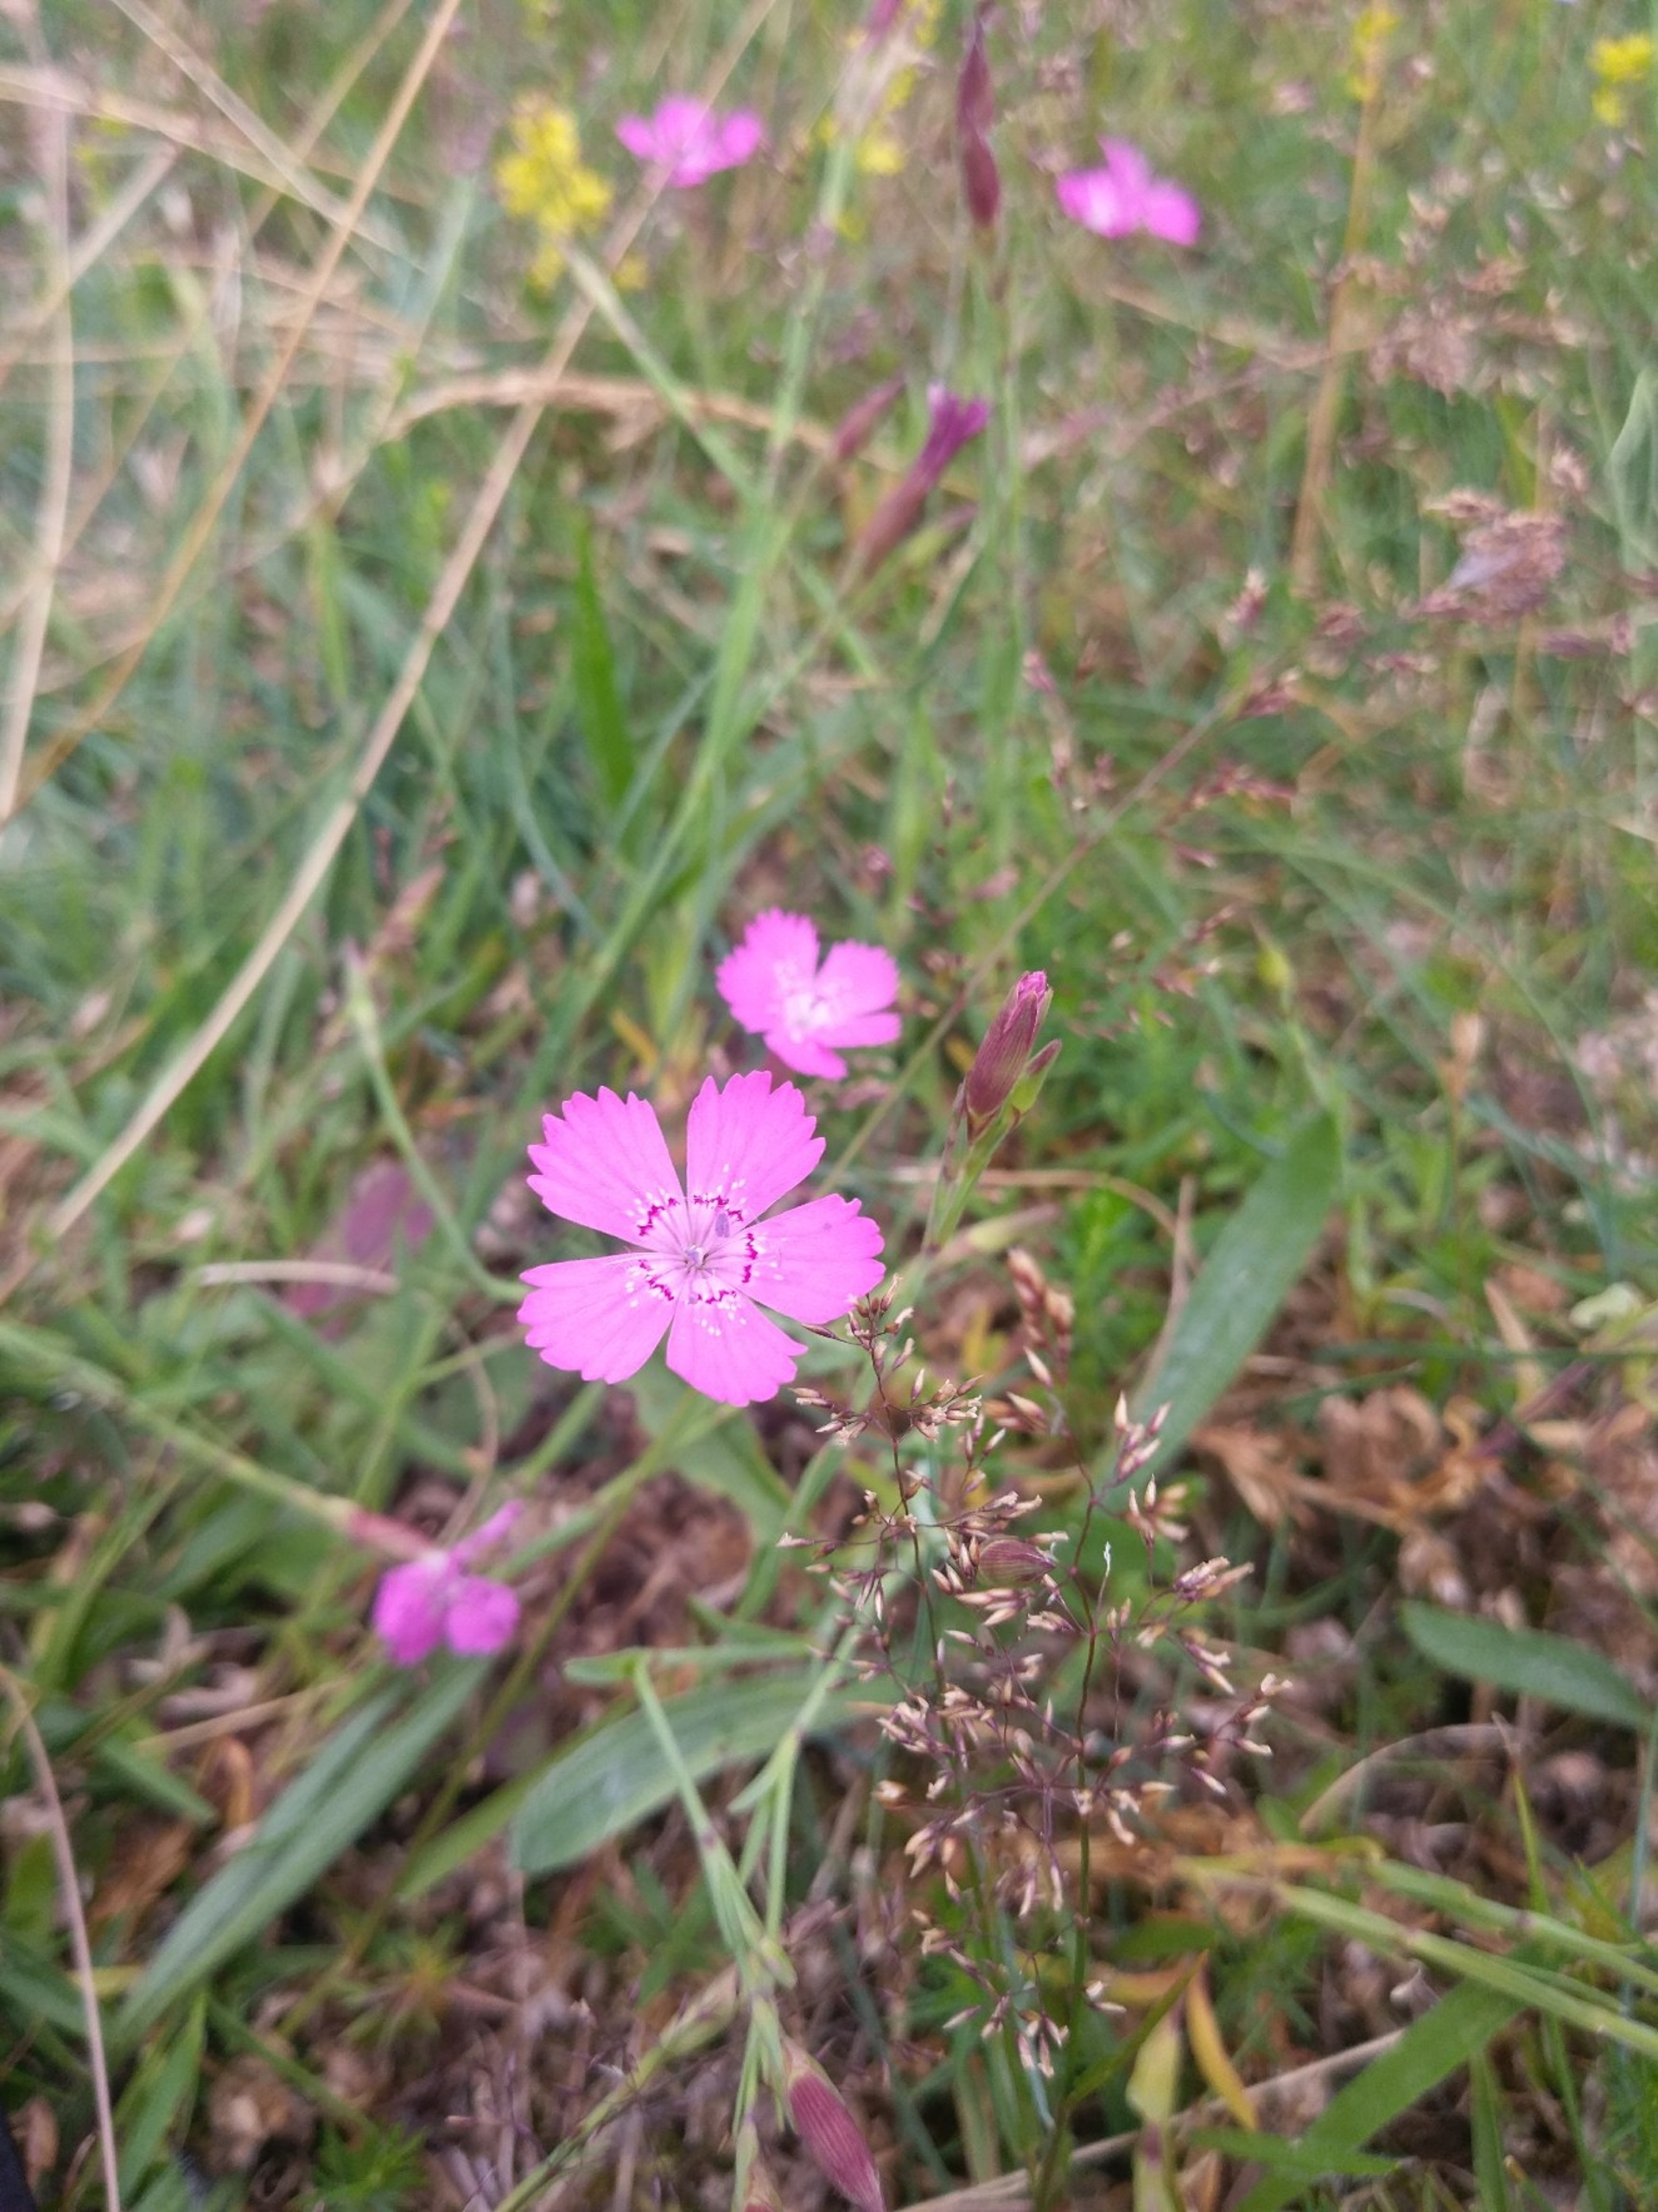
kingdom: Plantae
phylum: Tracheophyta
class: Magnoliopsida
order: Caryophyllales
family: Caryophyllaceae
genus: Dianthus
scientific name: Dianthus deltoides
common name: Bakke-nellike
